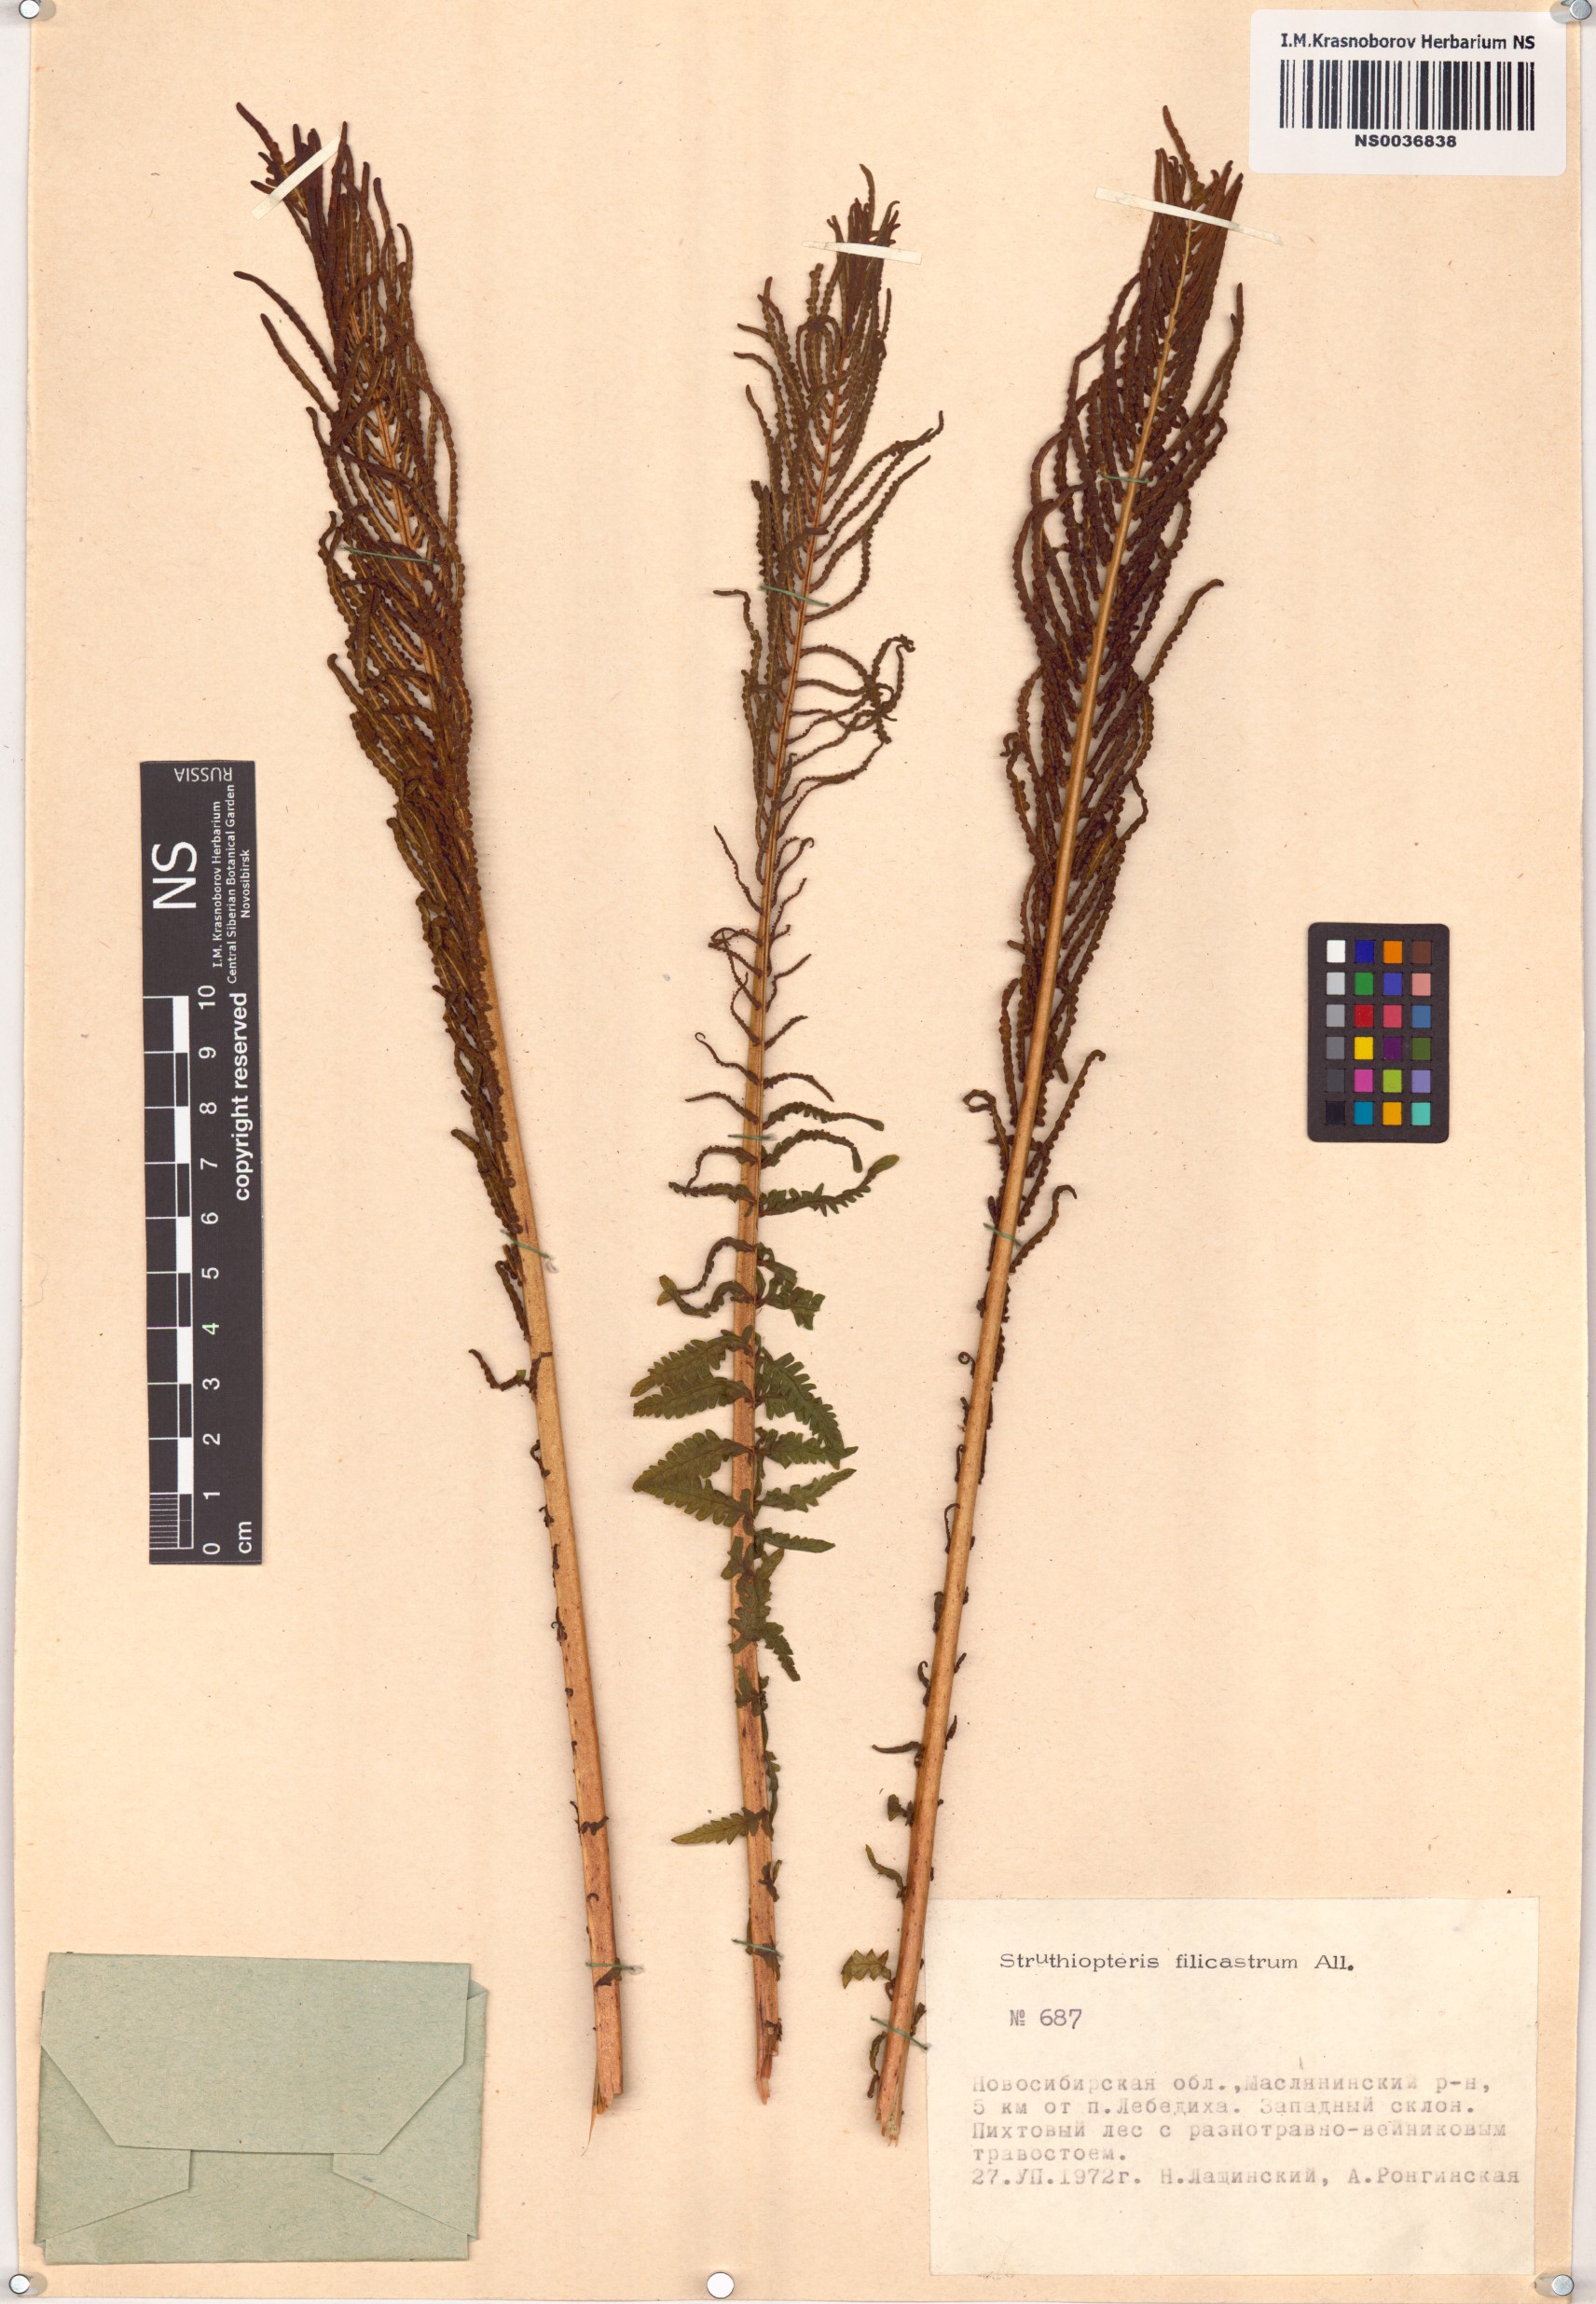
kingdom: Plantae
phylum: Tracheophyta
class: Polypodiopsida
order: Polypodiales
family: Onocleaceae
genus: Matteuccia
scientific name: Matteuccia struthiopteris
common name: Ostrich fern
